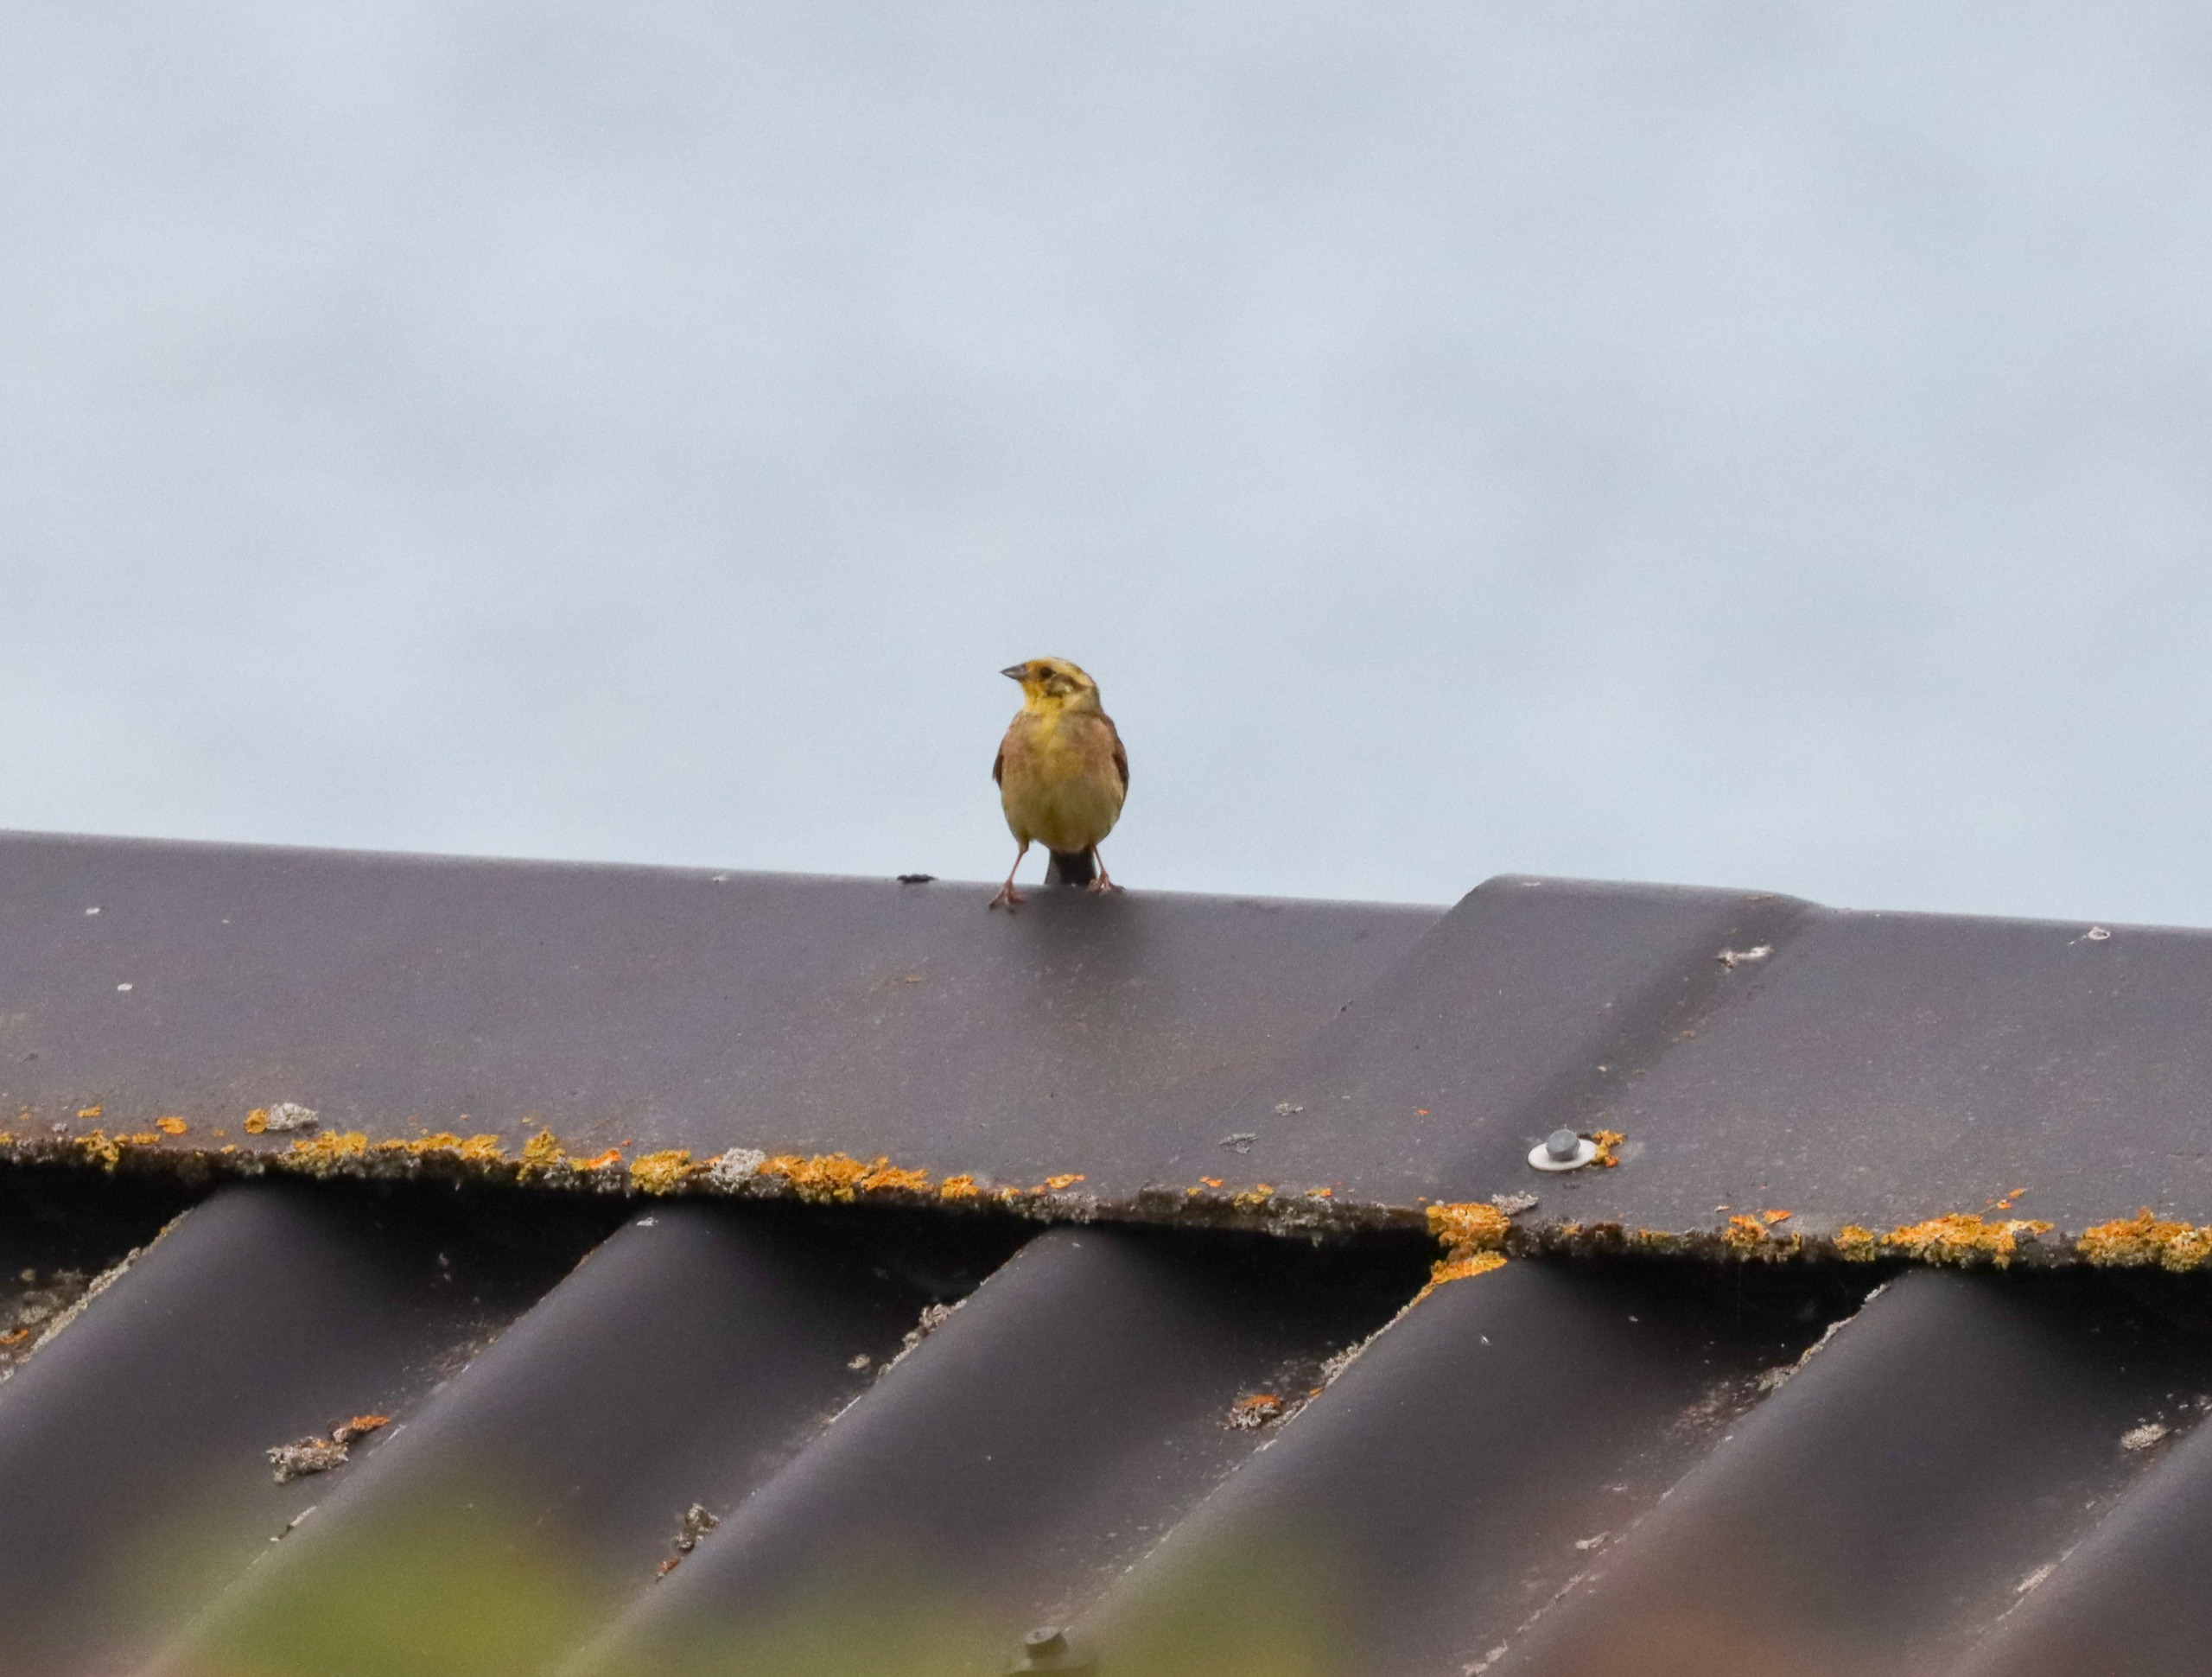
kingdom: Animalia
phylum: Chordata
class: Aves
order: Passeriformes
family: Emberizidae
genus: Emberiza
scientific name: Emberiza citrinella
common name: Gulspurv
